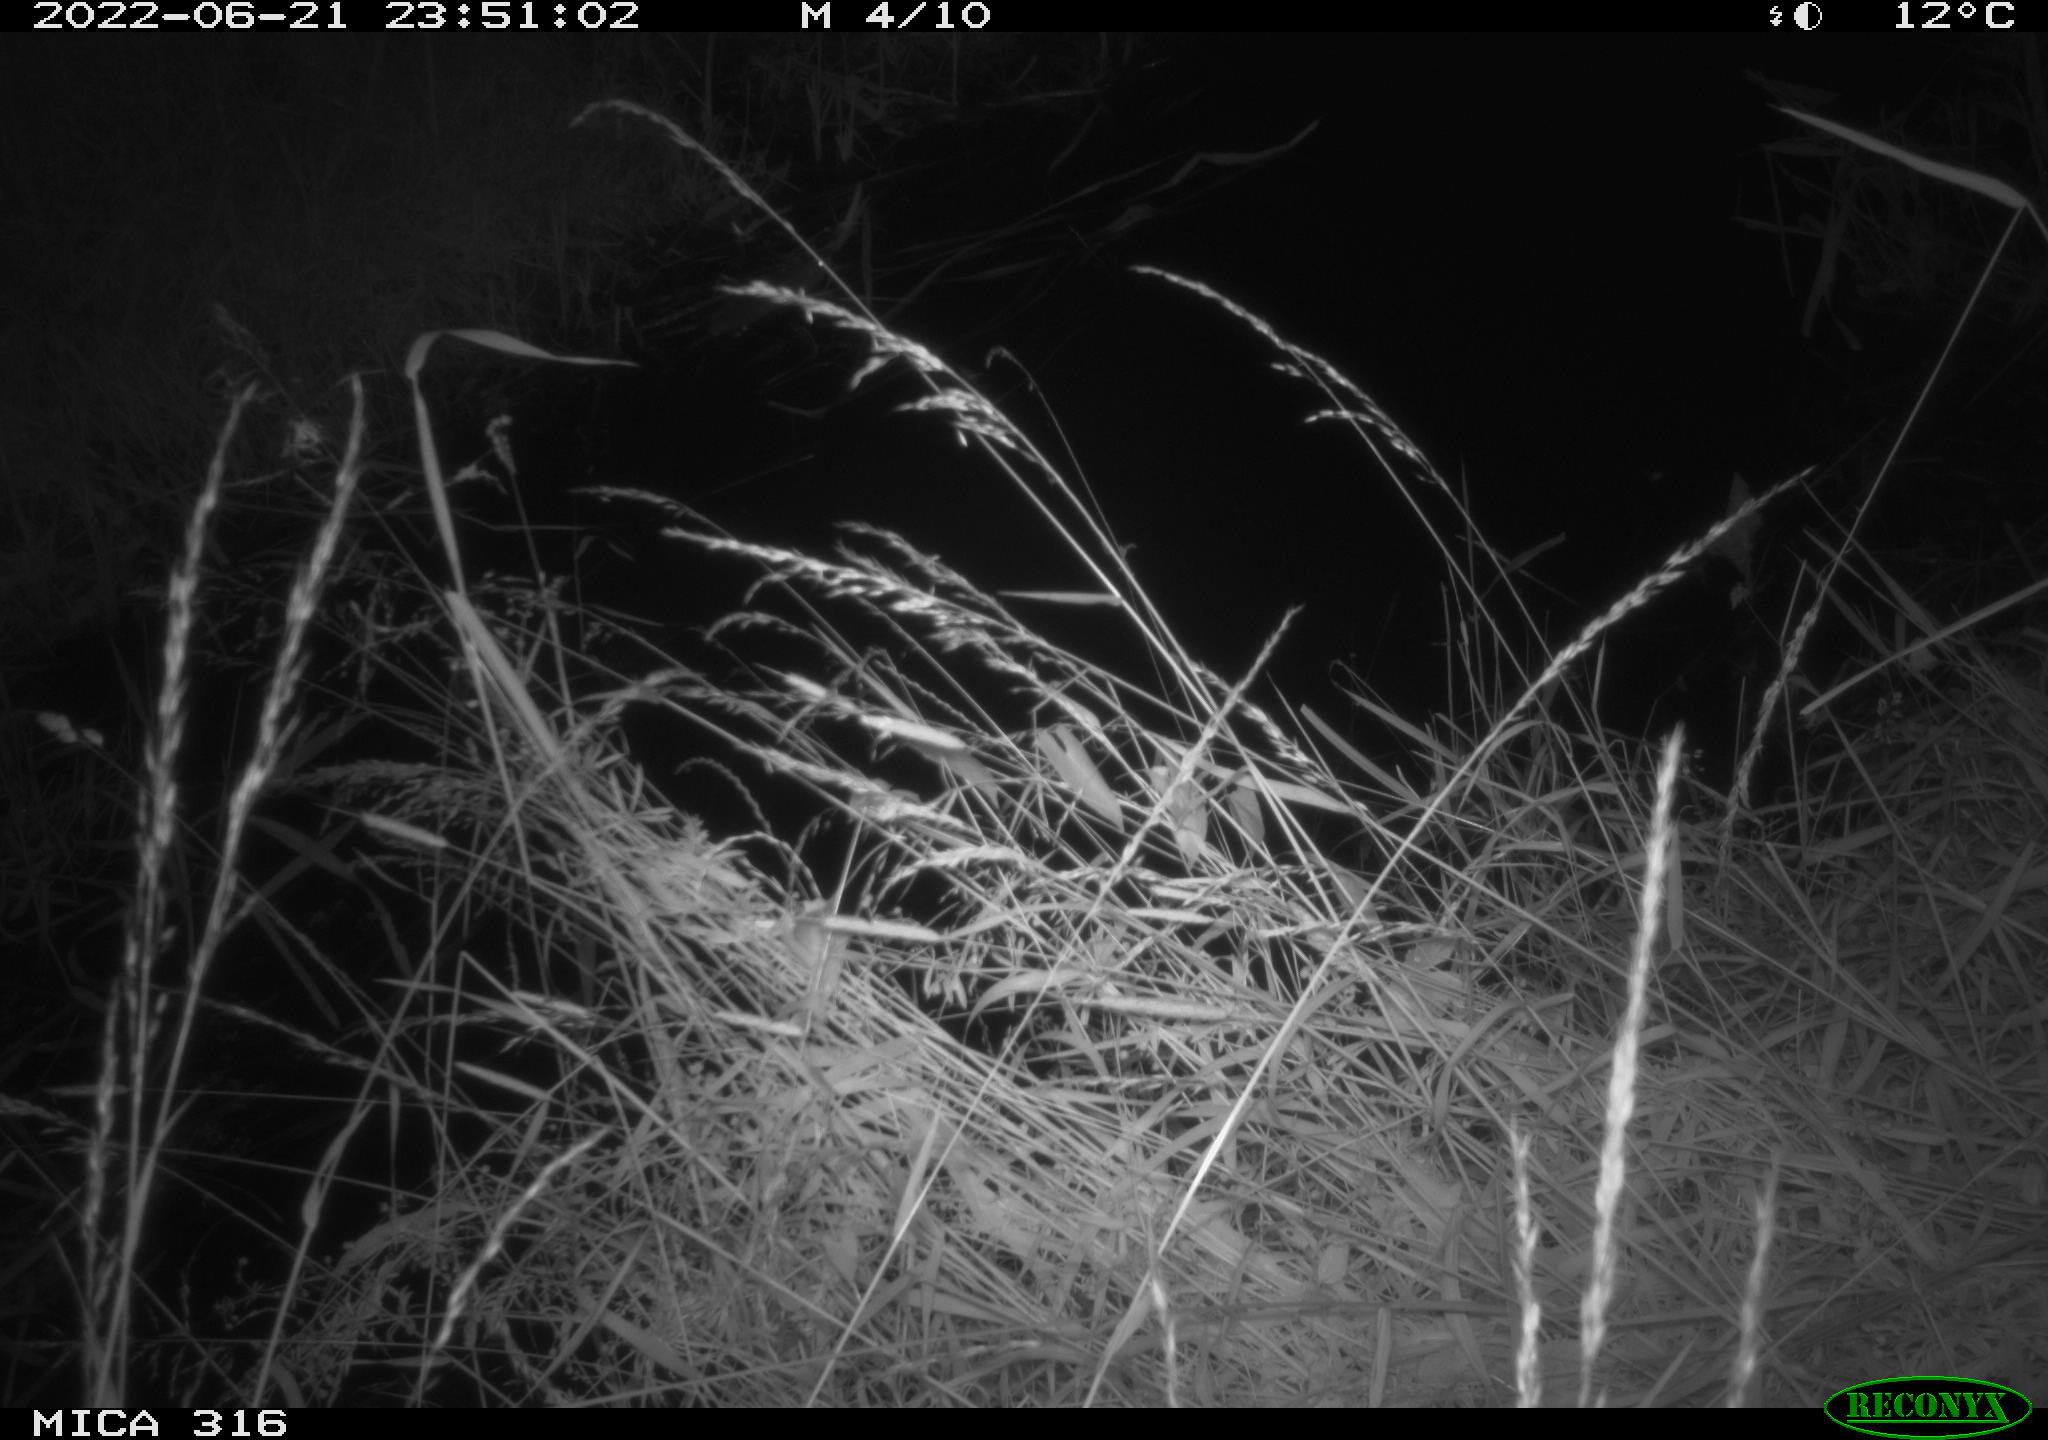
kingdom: Animalia
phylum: Chordata
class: Mammalia
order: Rodentia
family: Muridae
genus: Rattus
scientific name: Rattus norvegicus
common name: Brown rat
